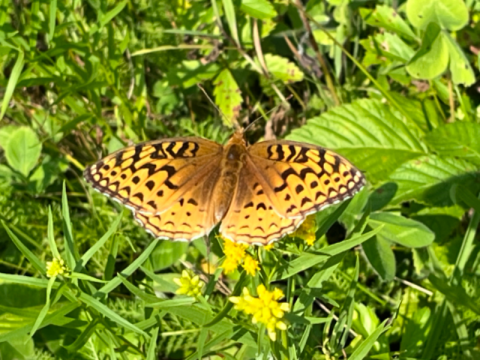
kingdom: Animalia
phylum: Arthropoda
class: Insecta
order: Lepidoptera
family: Nymphalidae
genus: Speyeria
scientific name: Speyeria aphrodite
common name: Aphrodite Fritillary
